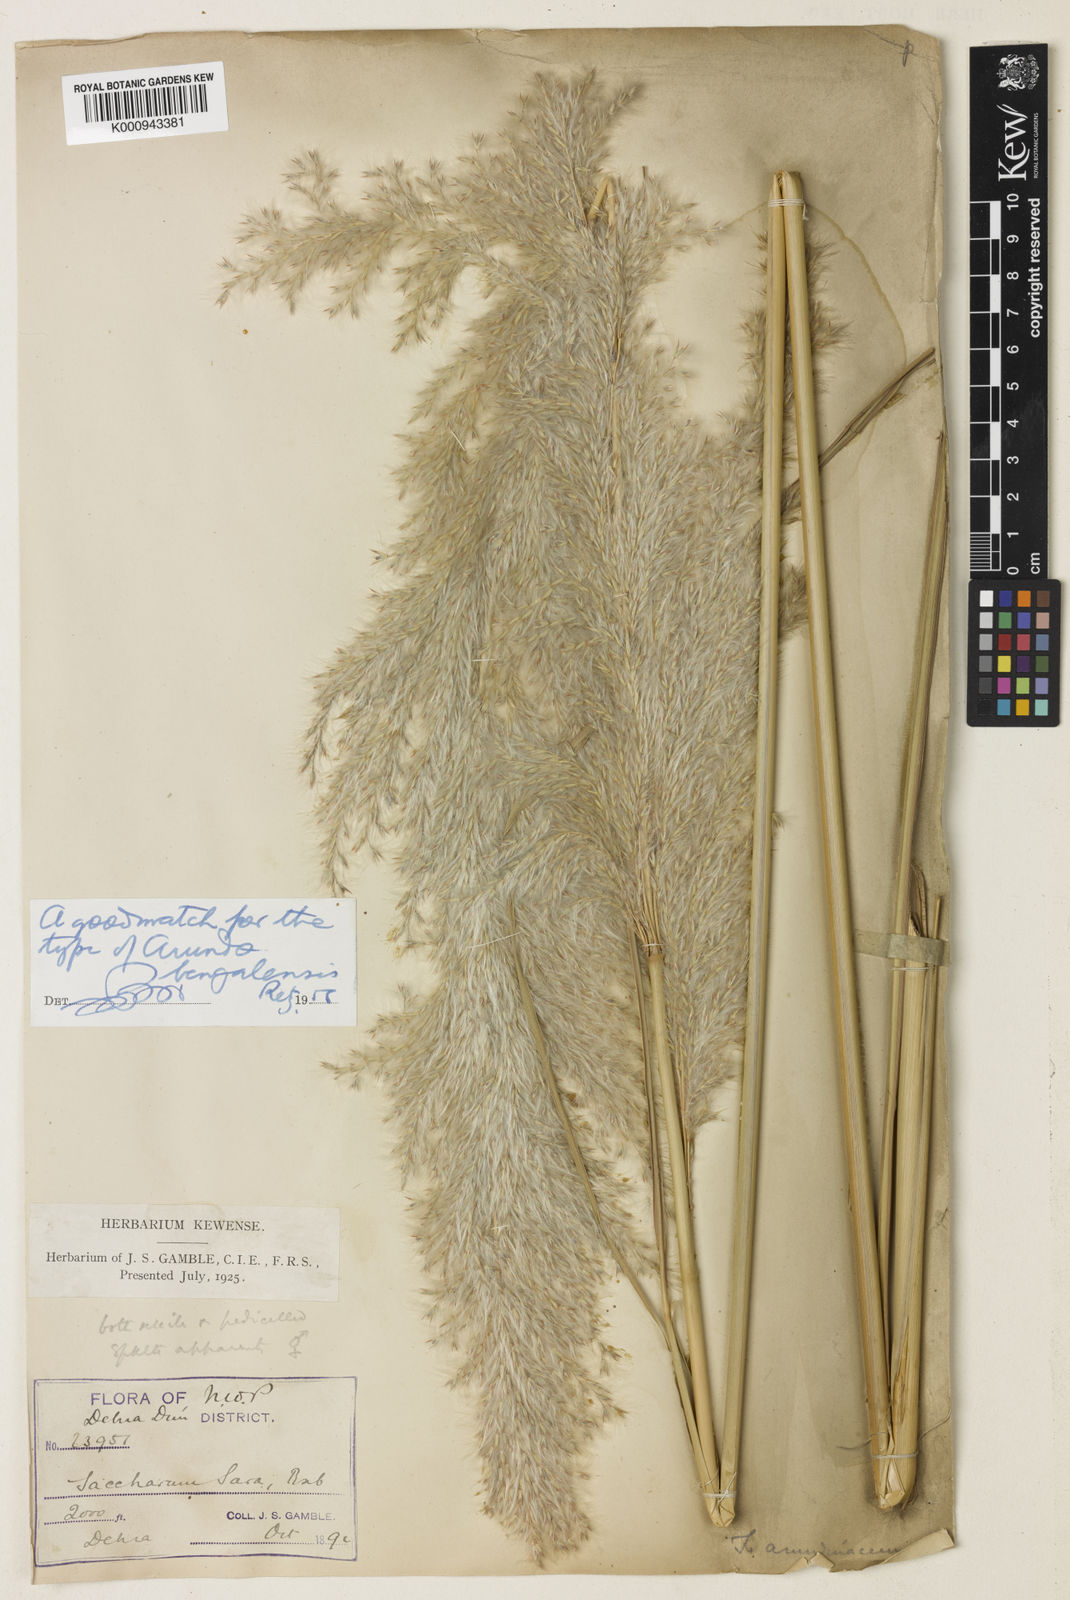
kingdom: Plantae
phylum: Tracheophyta
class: Liliopsida
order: Poales
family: Poaceae
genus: Tripidium
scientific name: Tripidium bengalense
